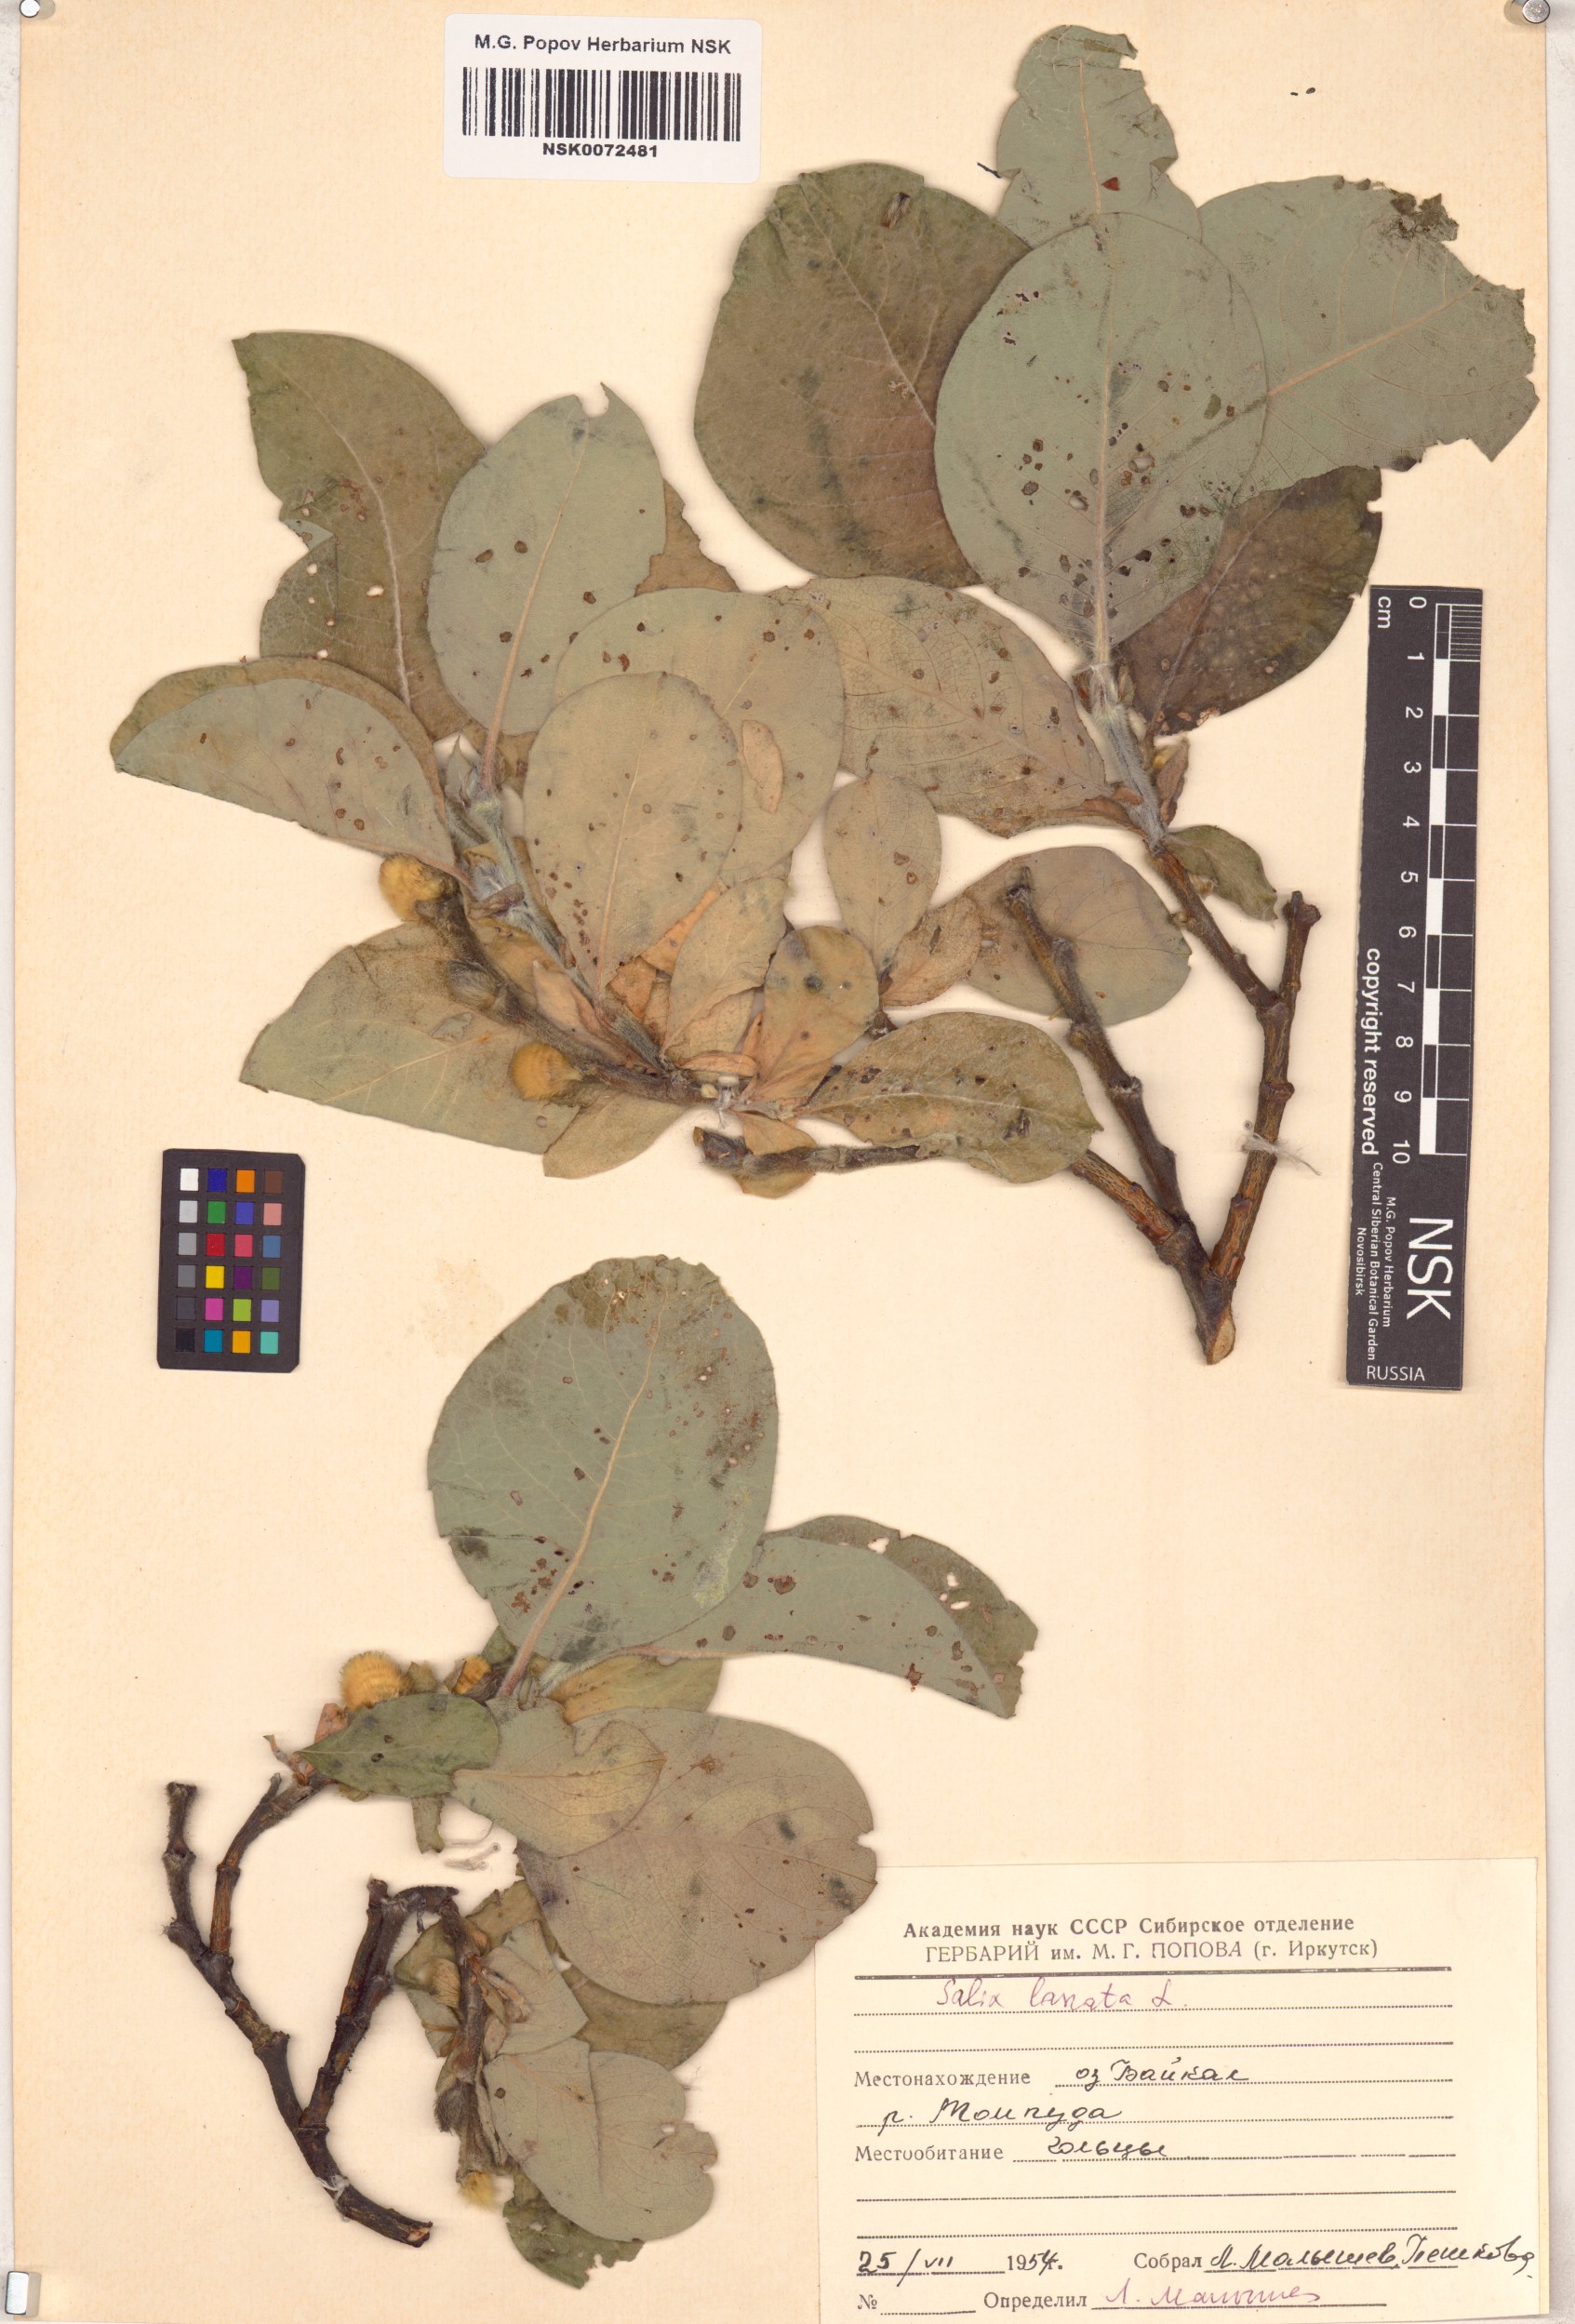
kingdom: Plantae
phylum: Tracheophyta
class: Magnoliopsida
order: Malpighiales
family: Salicaceae
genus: Salix
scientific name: Salix lanata
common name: Woolly willow
